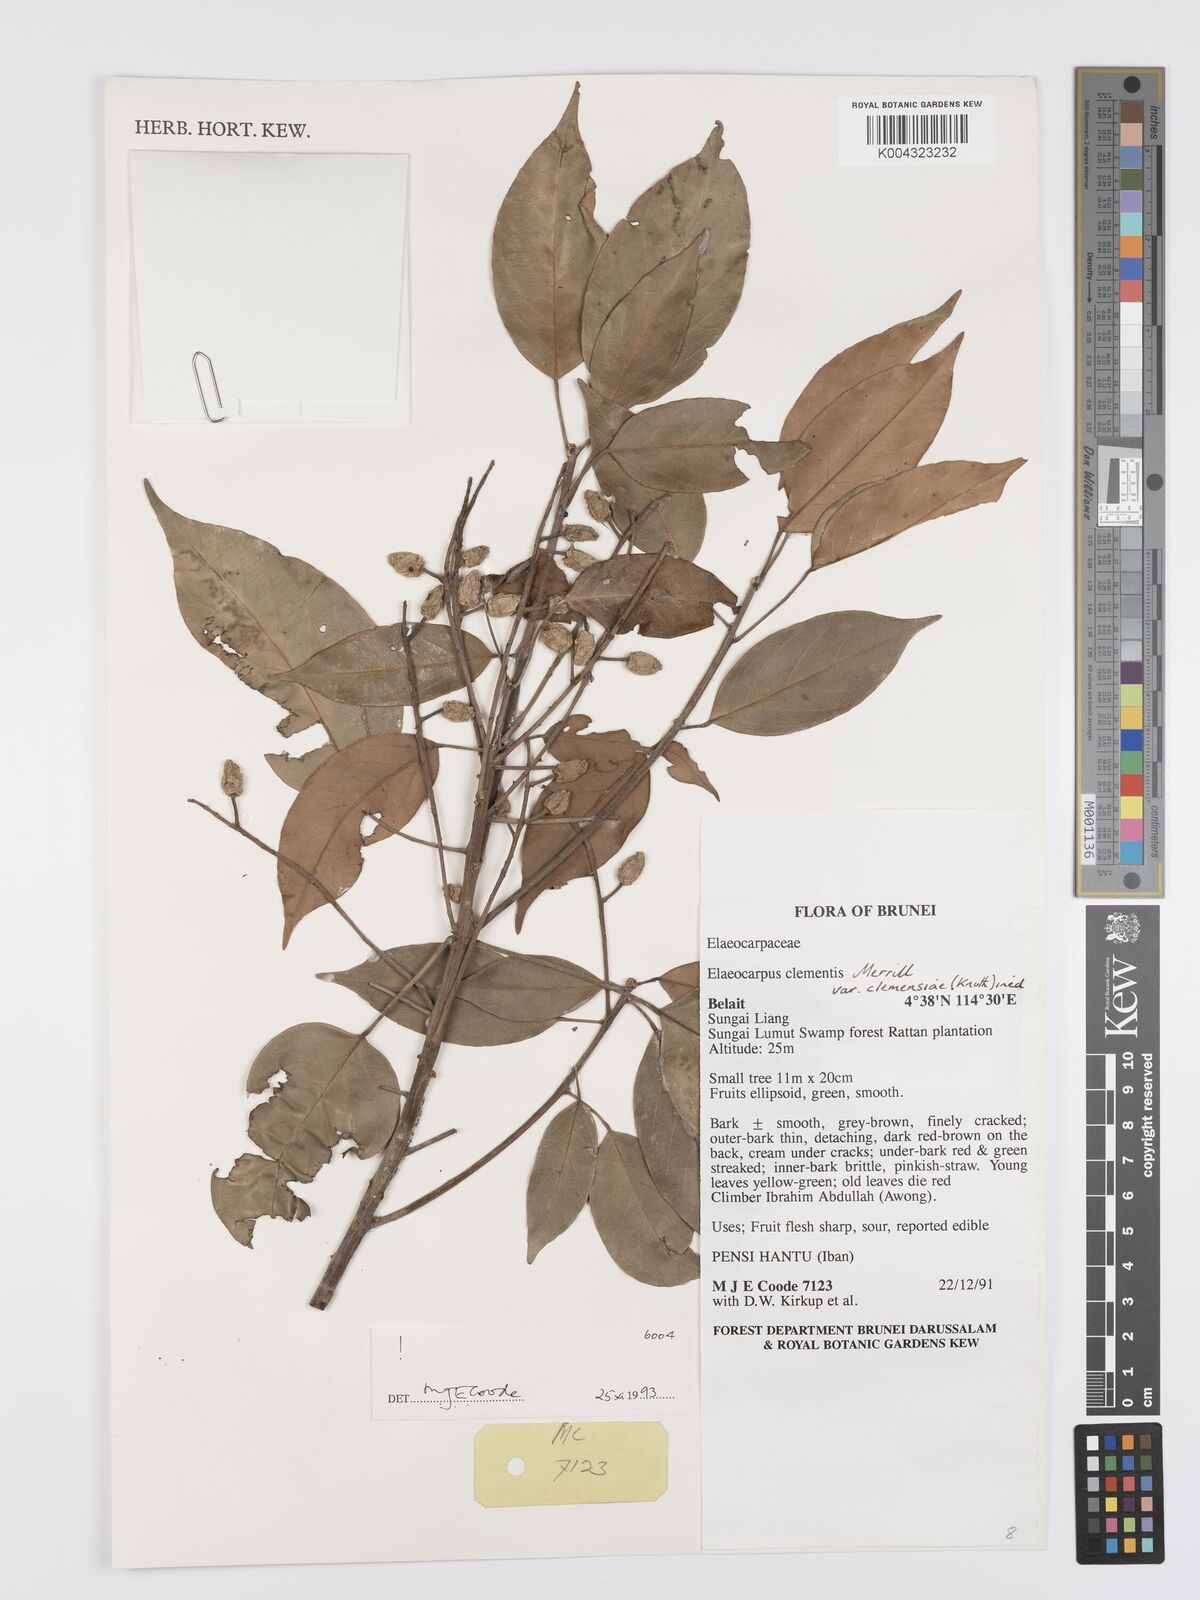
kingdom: Plantae
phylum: Tracheophyta
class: Magnoliopsida
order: Oxalidales
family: Elaeocarpaceae
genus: Elaeocarpus
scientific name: Elaeocarpus clementis
